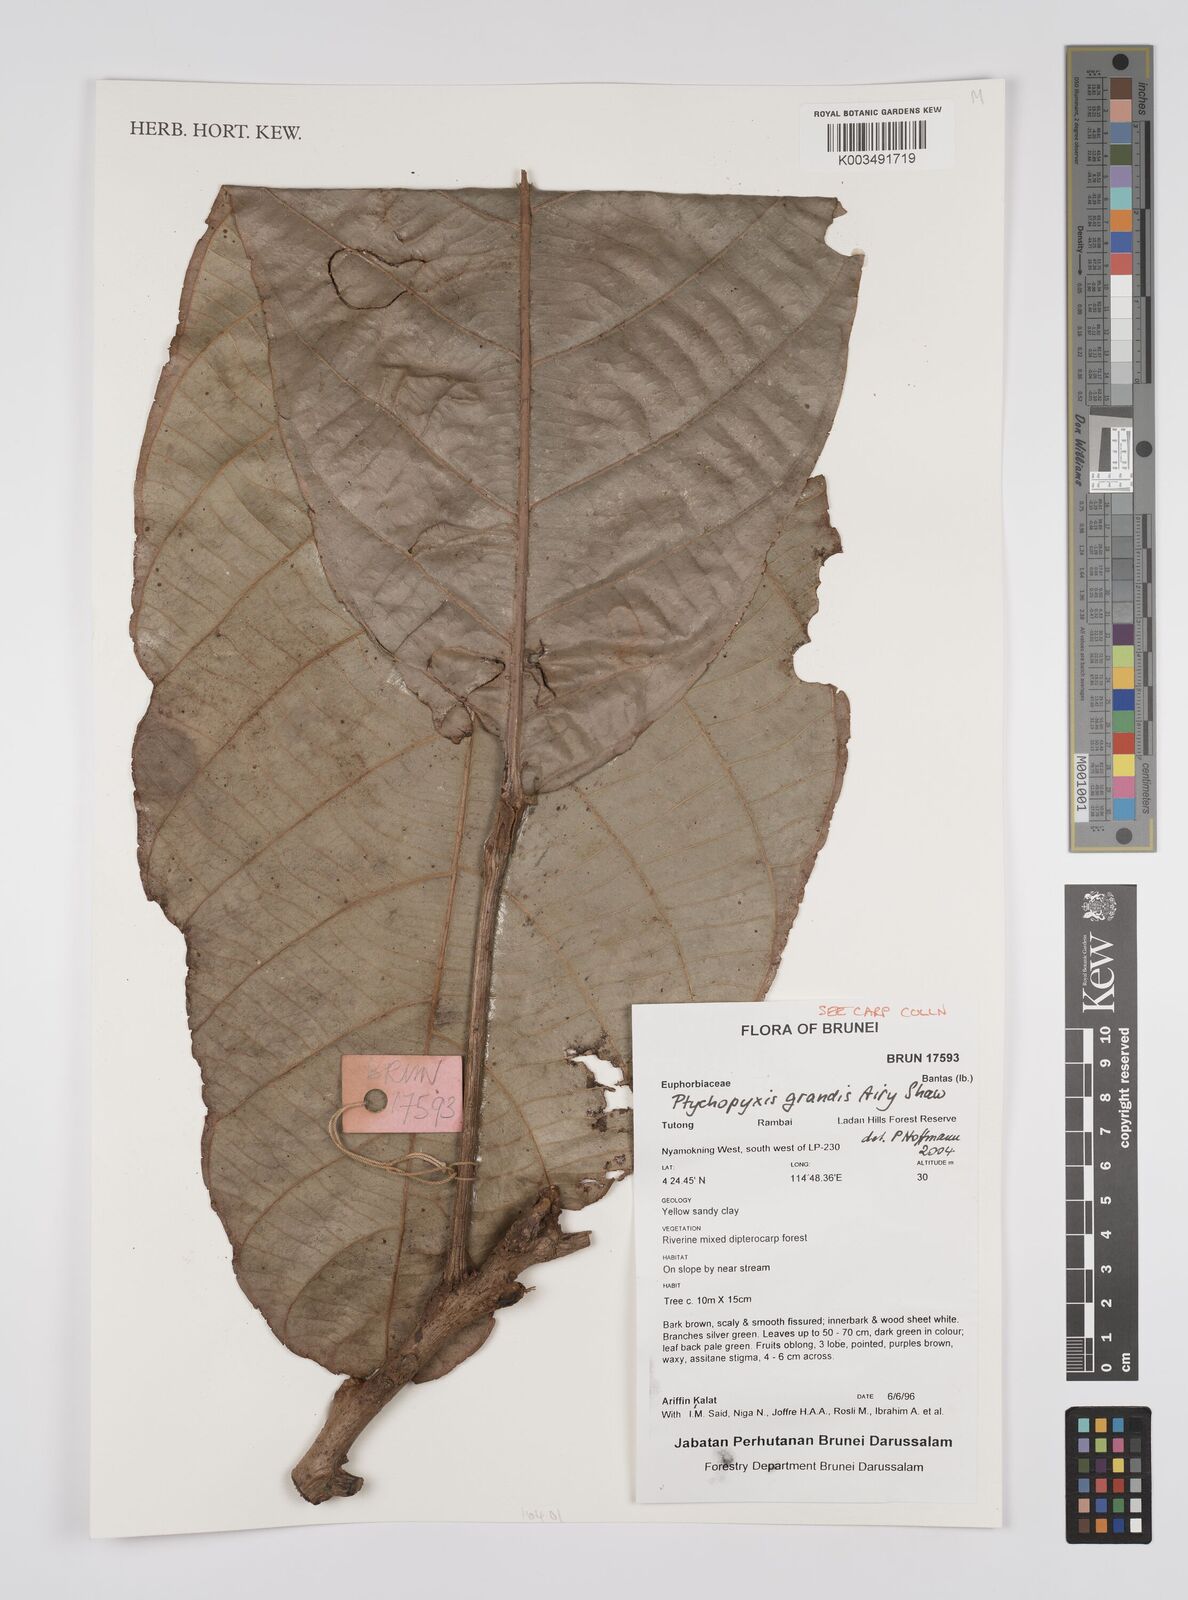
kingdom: Plantae
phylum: Tracheophyta
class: Magnoliopsida
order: Malpighiales
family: Euphorbiaceae
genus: Ptychopyxis
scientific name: Ptychopyxis grandis
